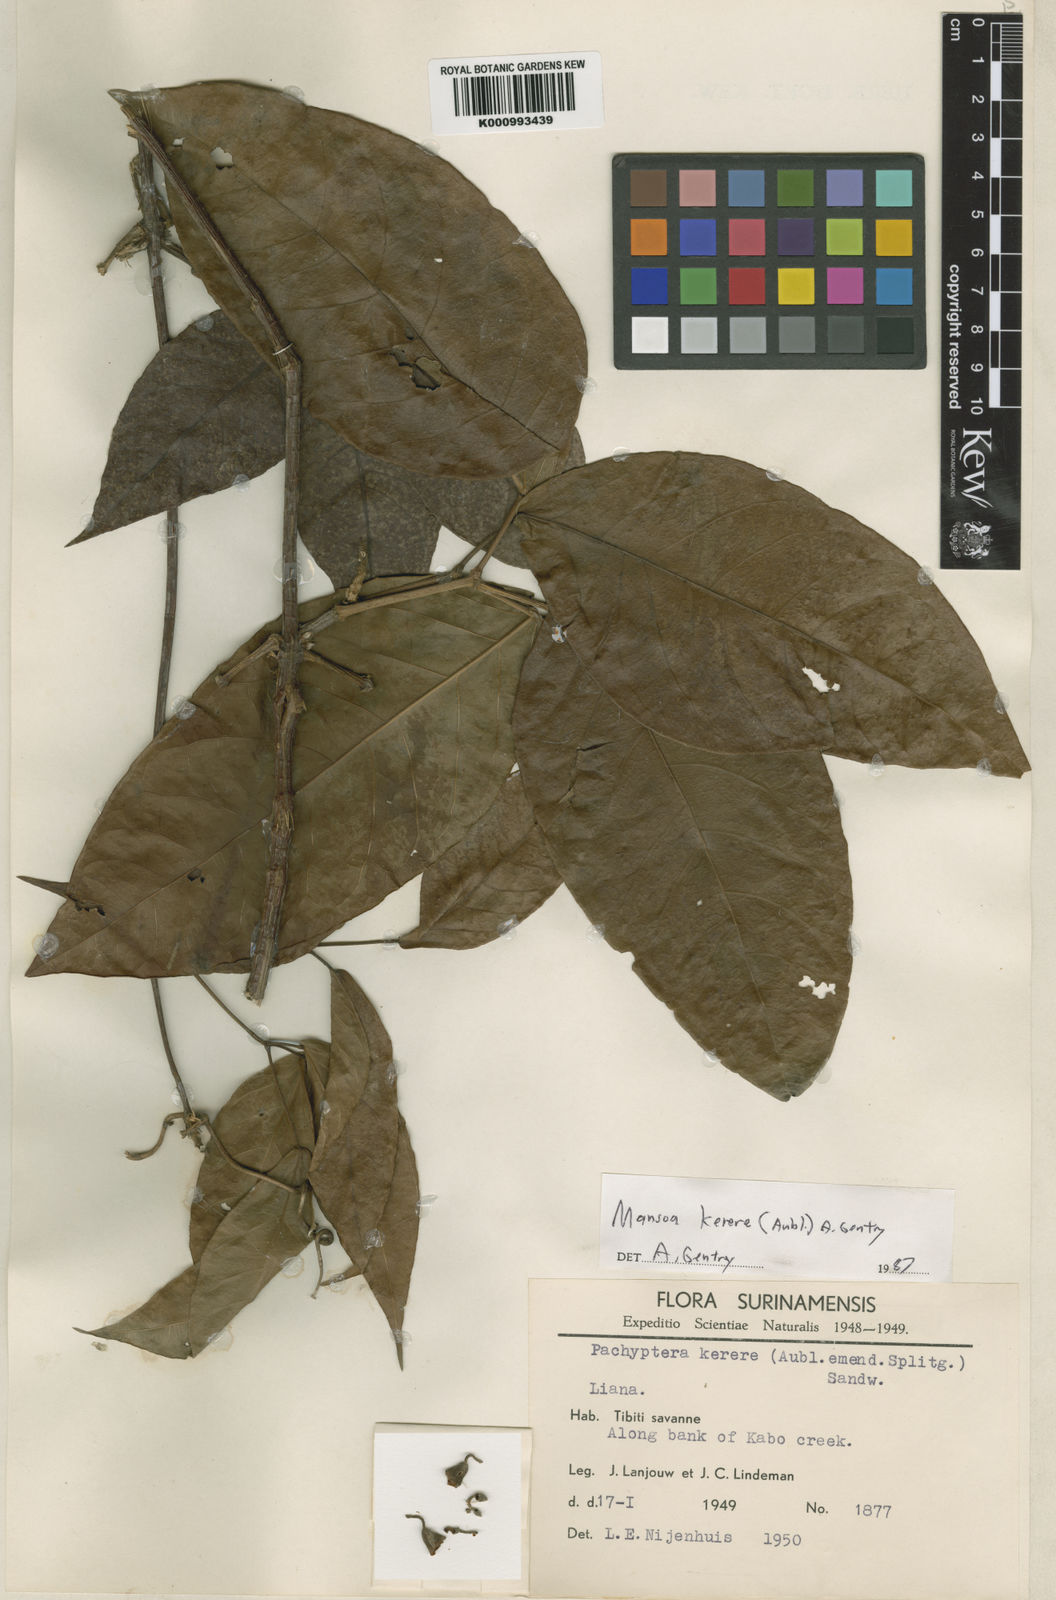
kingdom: Plantae
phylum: Tracheophyta
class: Magnoliopsida
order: Lamiales
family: Bignoniaceae
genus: Pachyptera
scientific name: Pachyptera kerere
